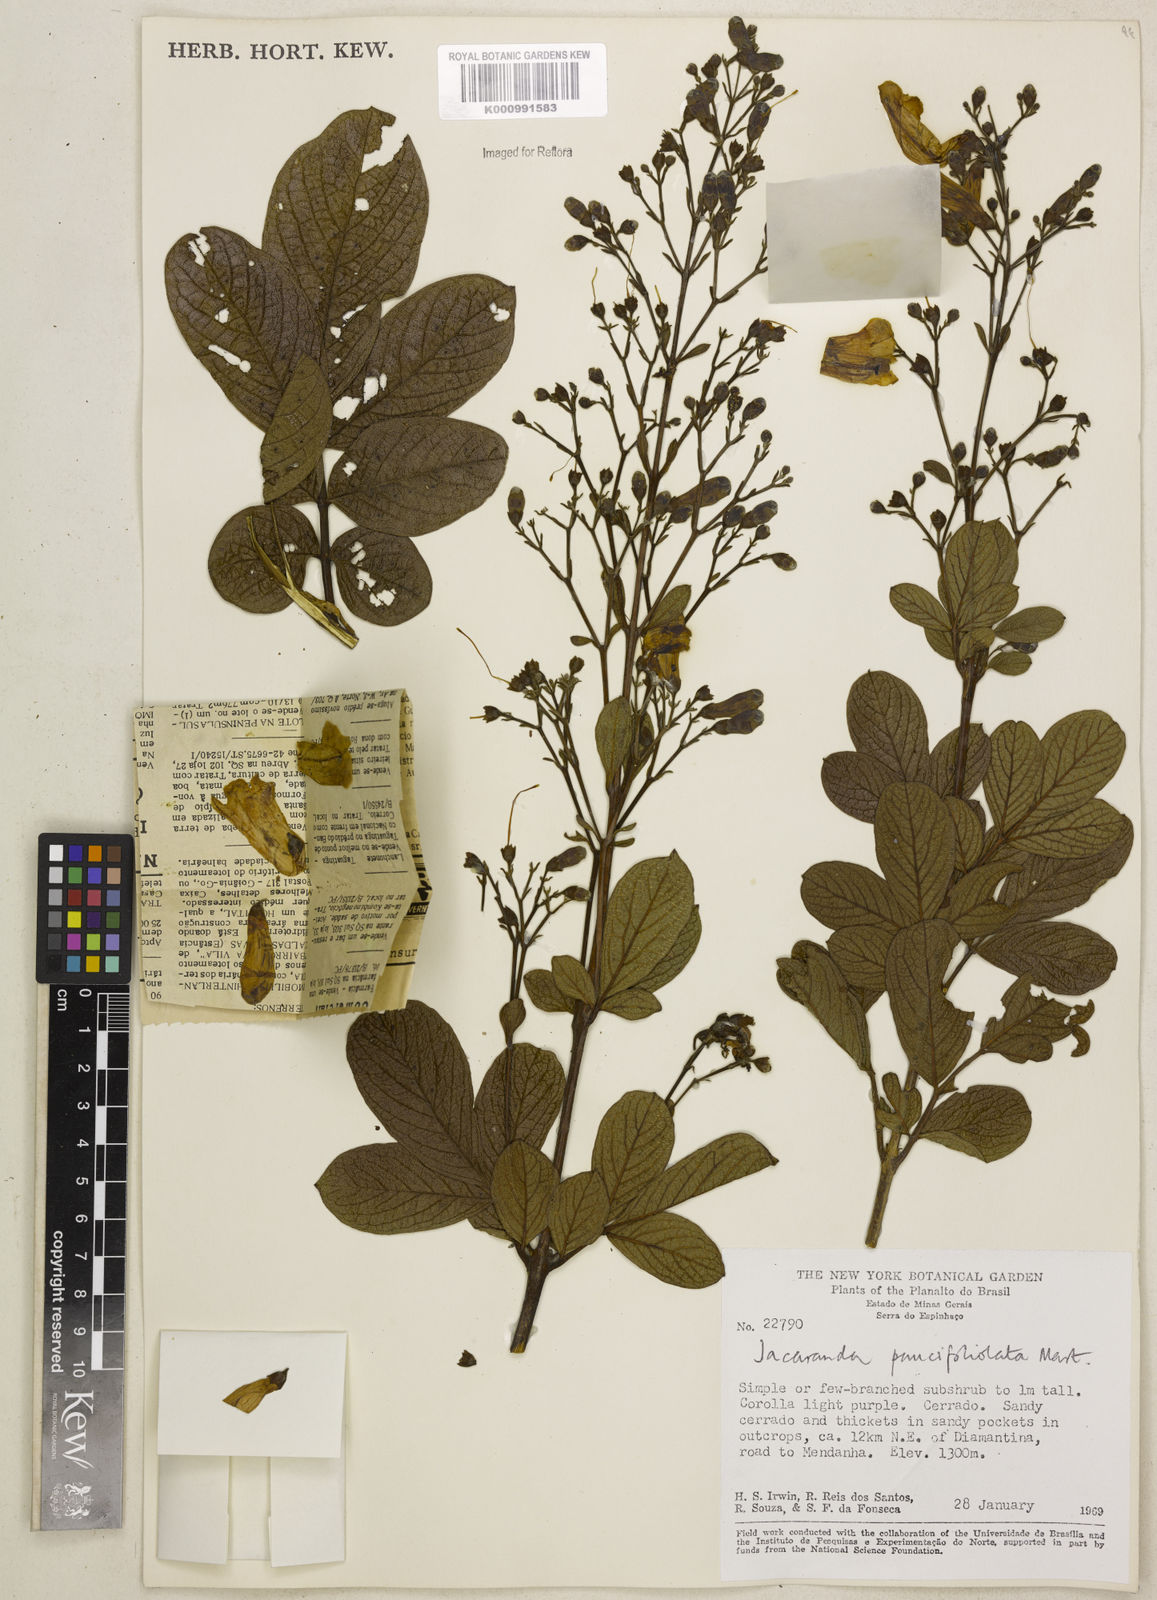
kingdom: Plantae
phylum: Tracheophyta
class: Magnoliopsida
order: Lamiales
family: Bignoniaceae
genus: Jacaranda
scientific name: Jacaranda
